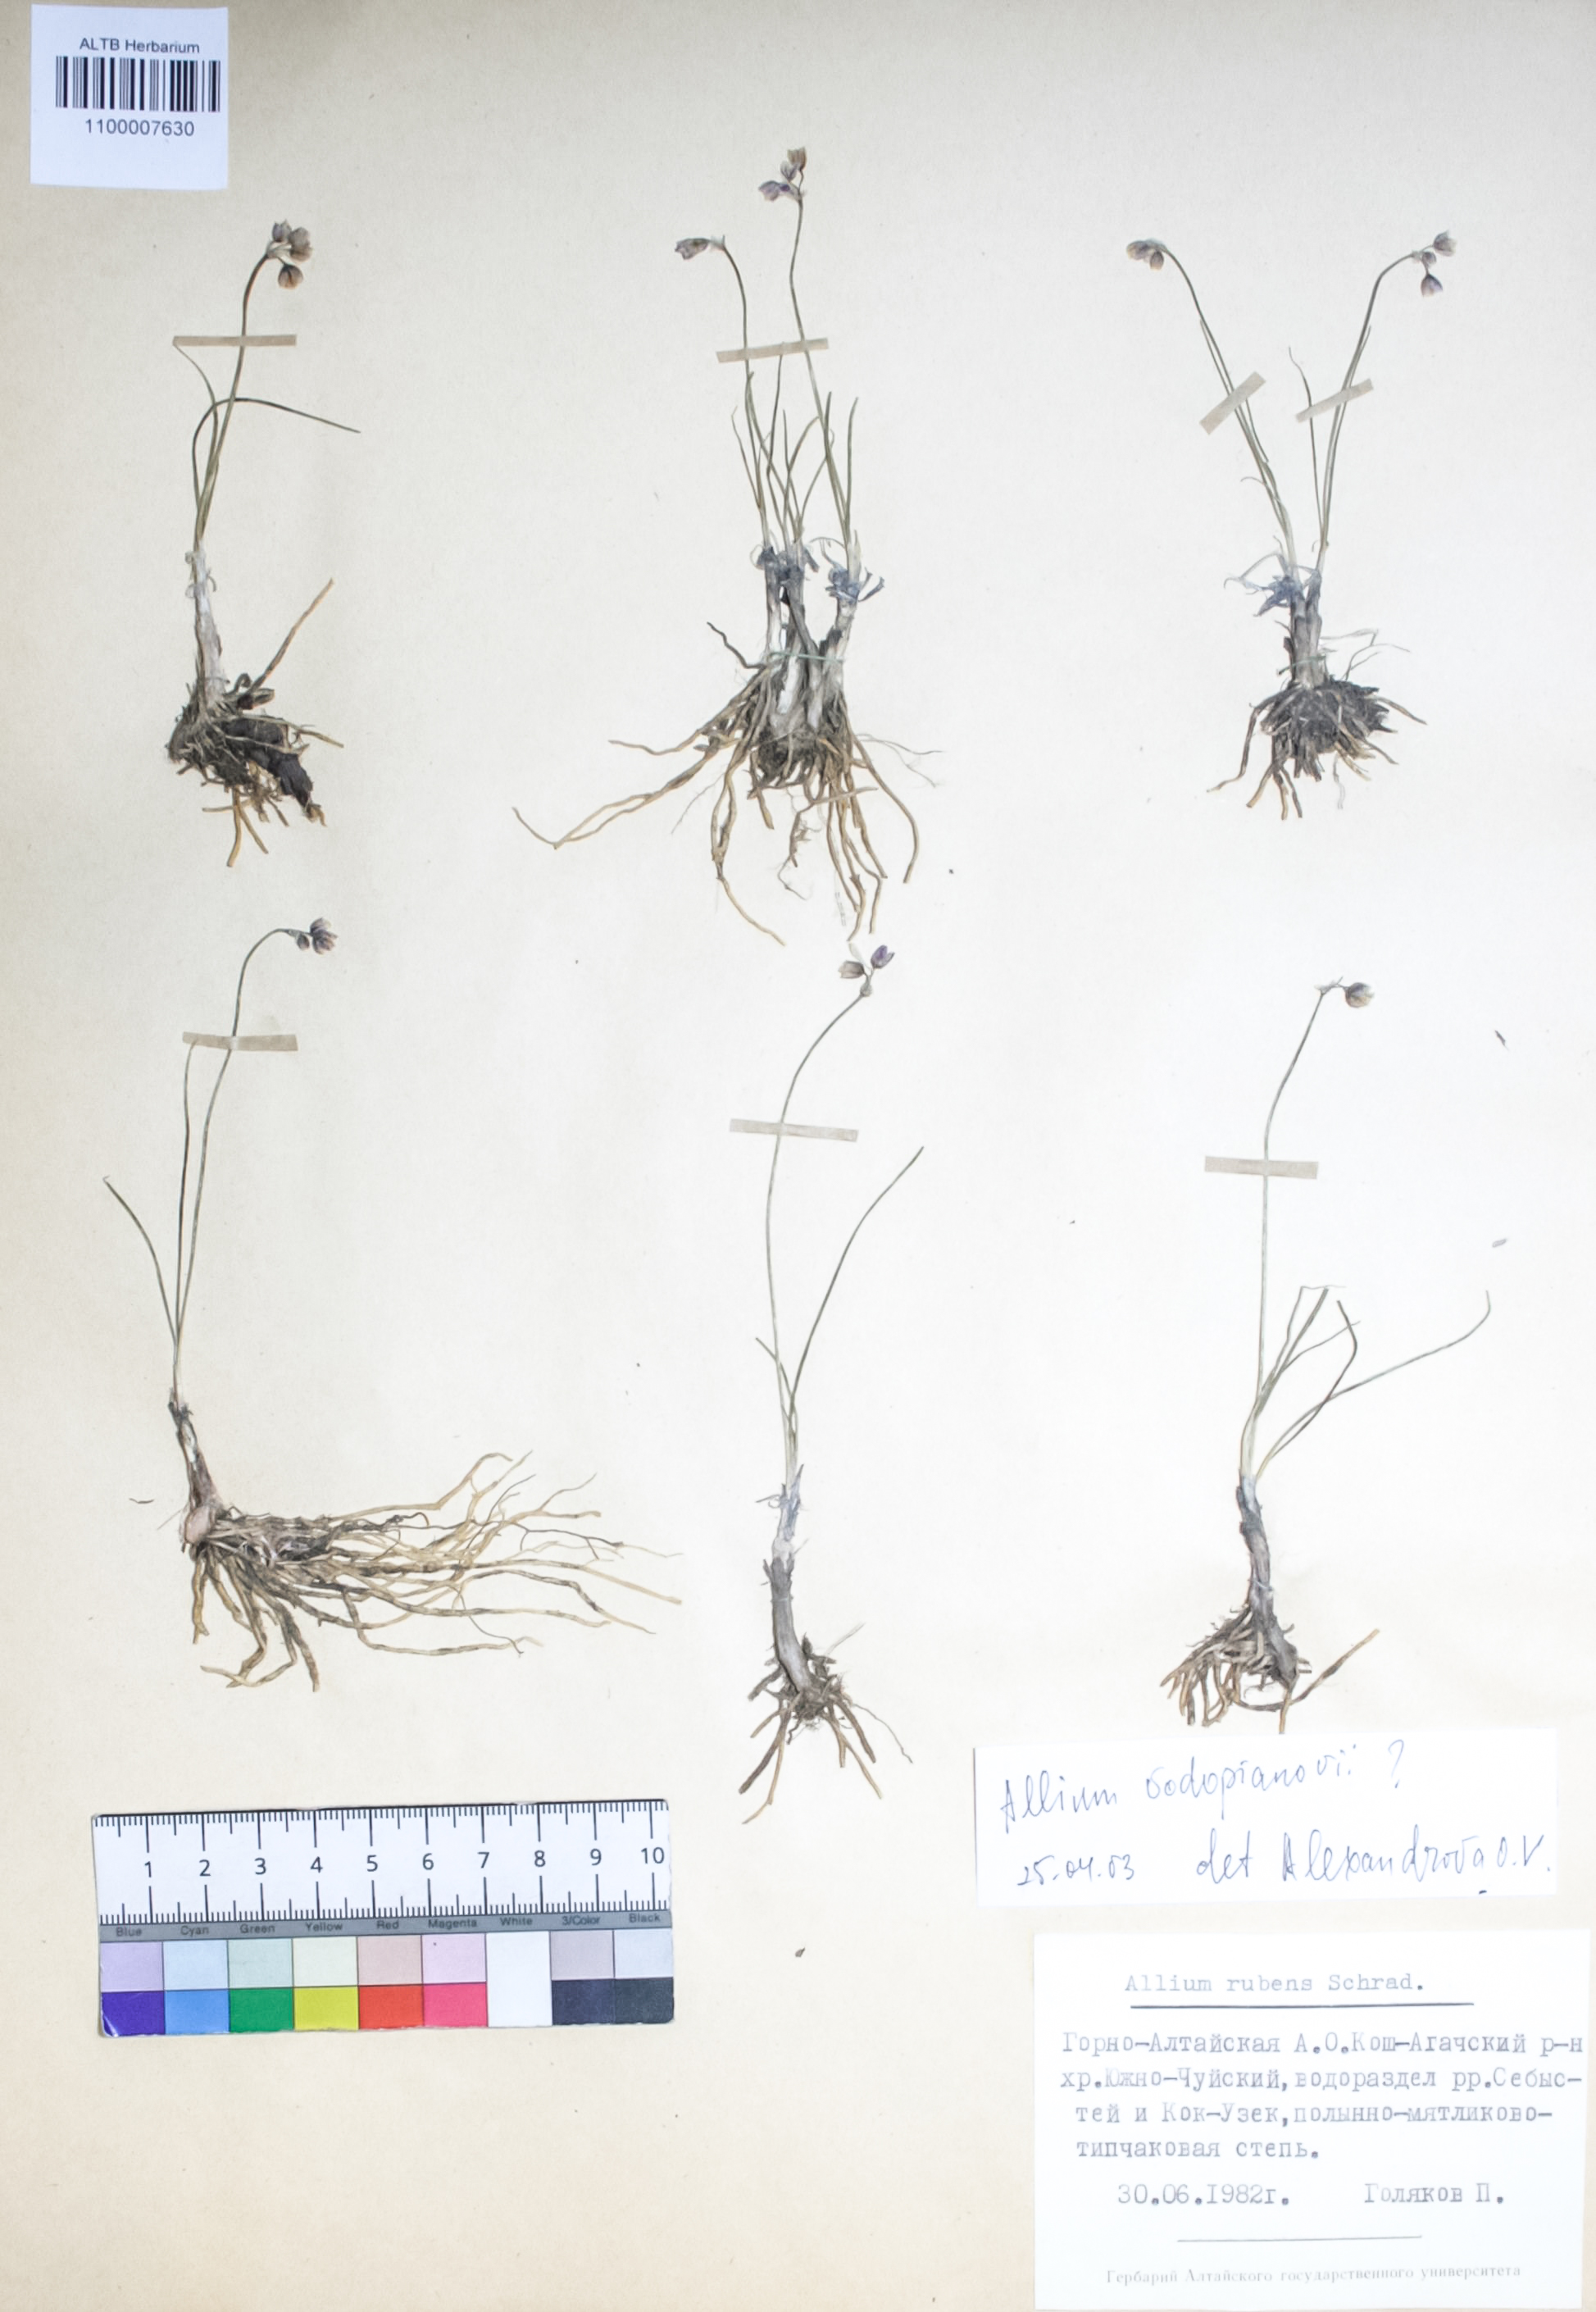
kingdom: Plantae
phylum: Tracheophyta
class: Liliopsida
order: Asparagales
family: Amaryllidaceae
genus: Allium
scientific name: Allium vodopjanovae
